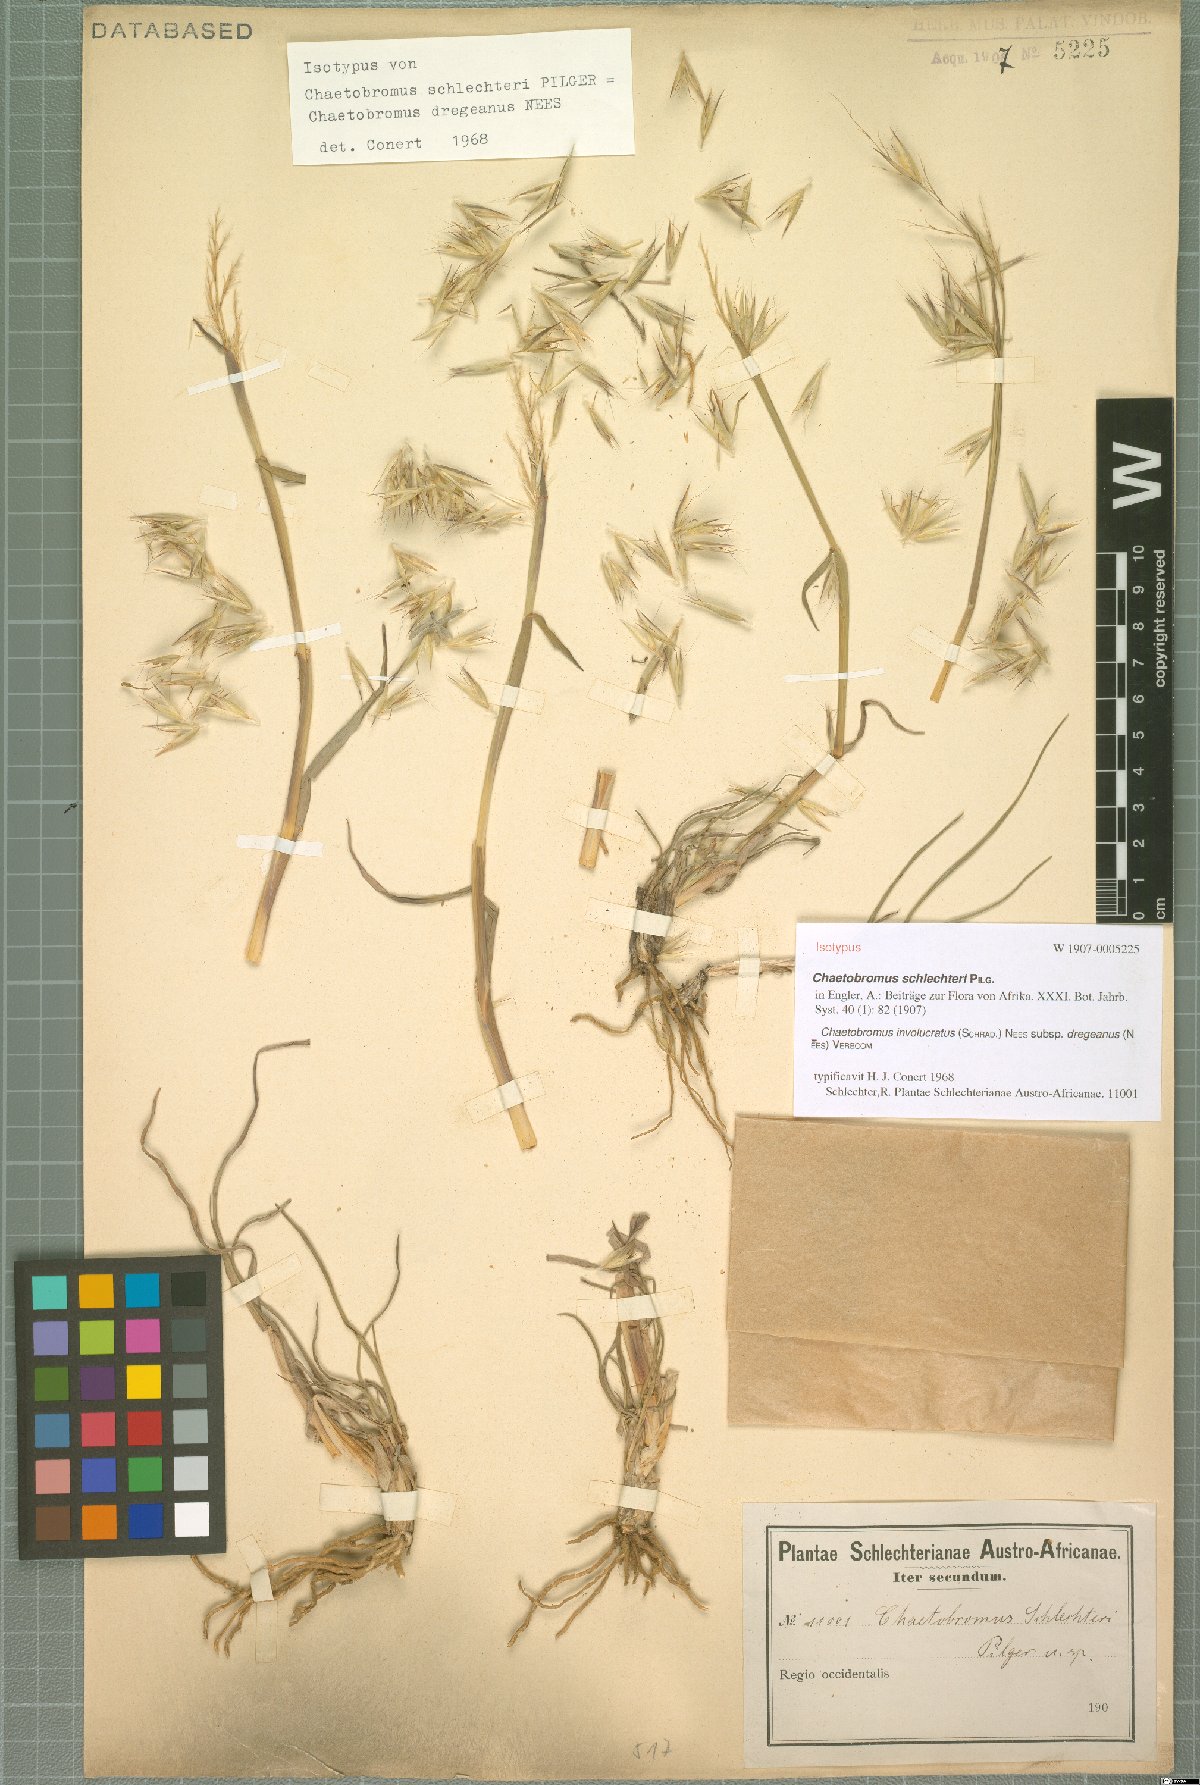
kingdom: Plantae
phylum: Tracheophyta
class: Liliopsida
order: Poales
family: Poaceae
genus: Chaetobromus
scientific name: Chaetobromus involucratus
